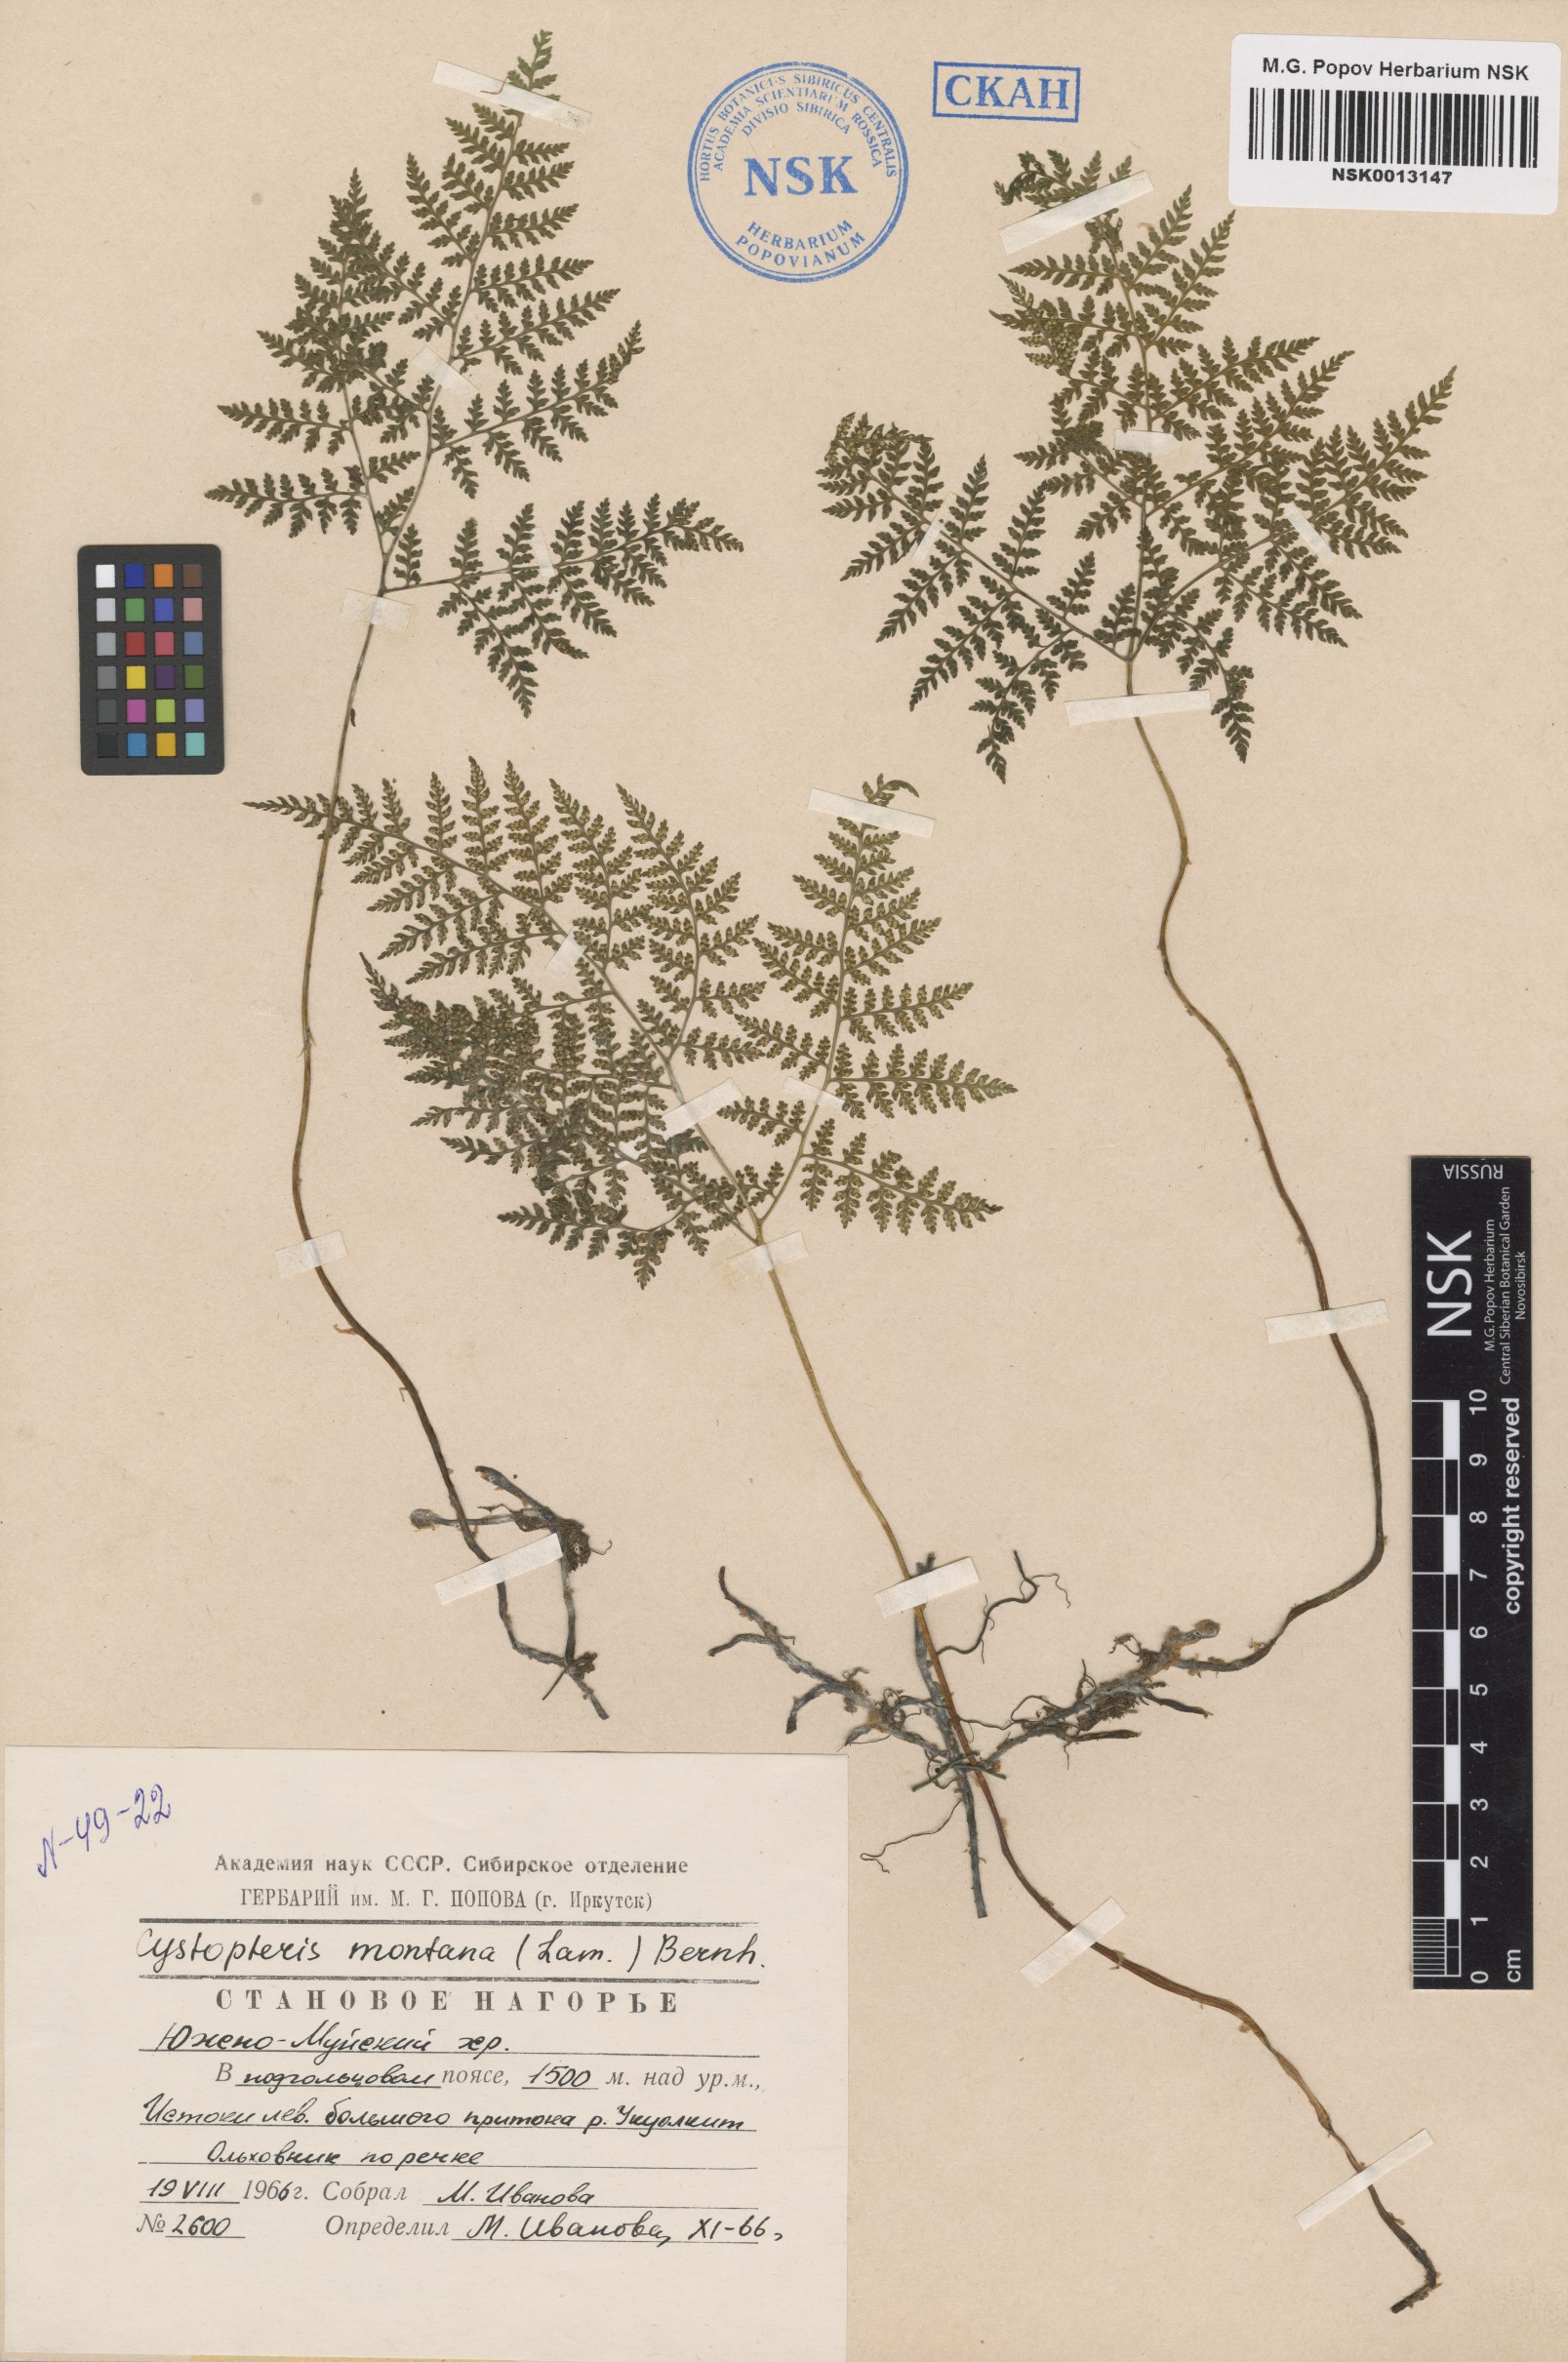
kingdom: Plantae
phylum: Tracheophyta
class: Polypodiopsida
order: Polypodiales
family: Cystopteridaceae
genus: Cystopteris
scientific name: Cystopteris montana
